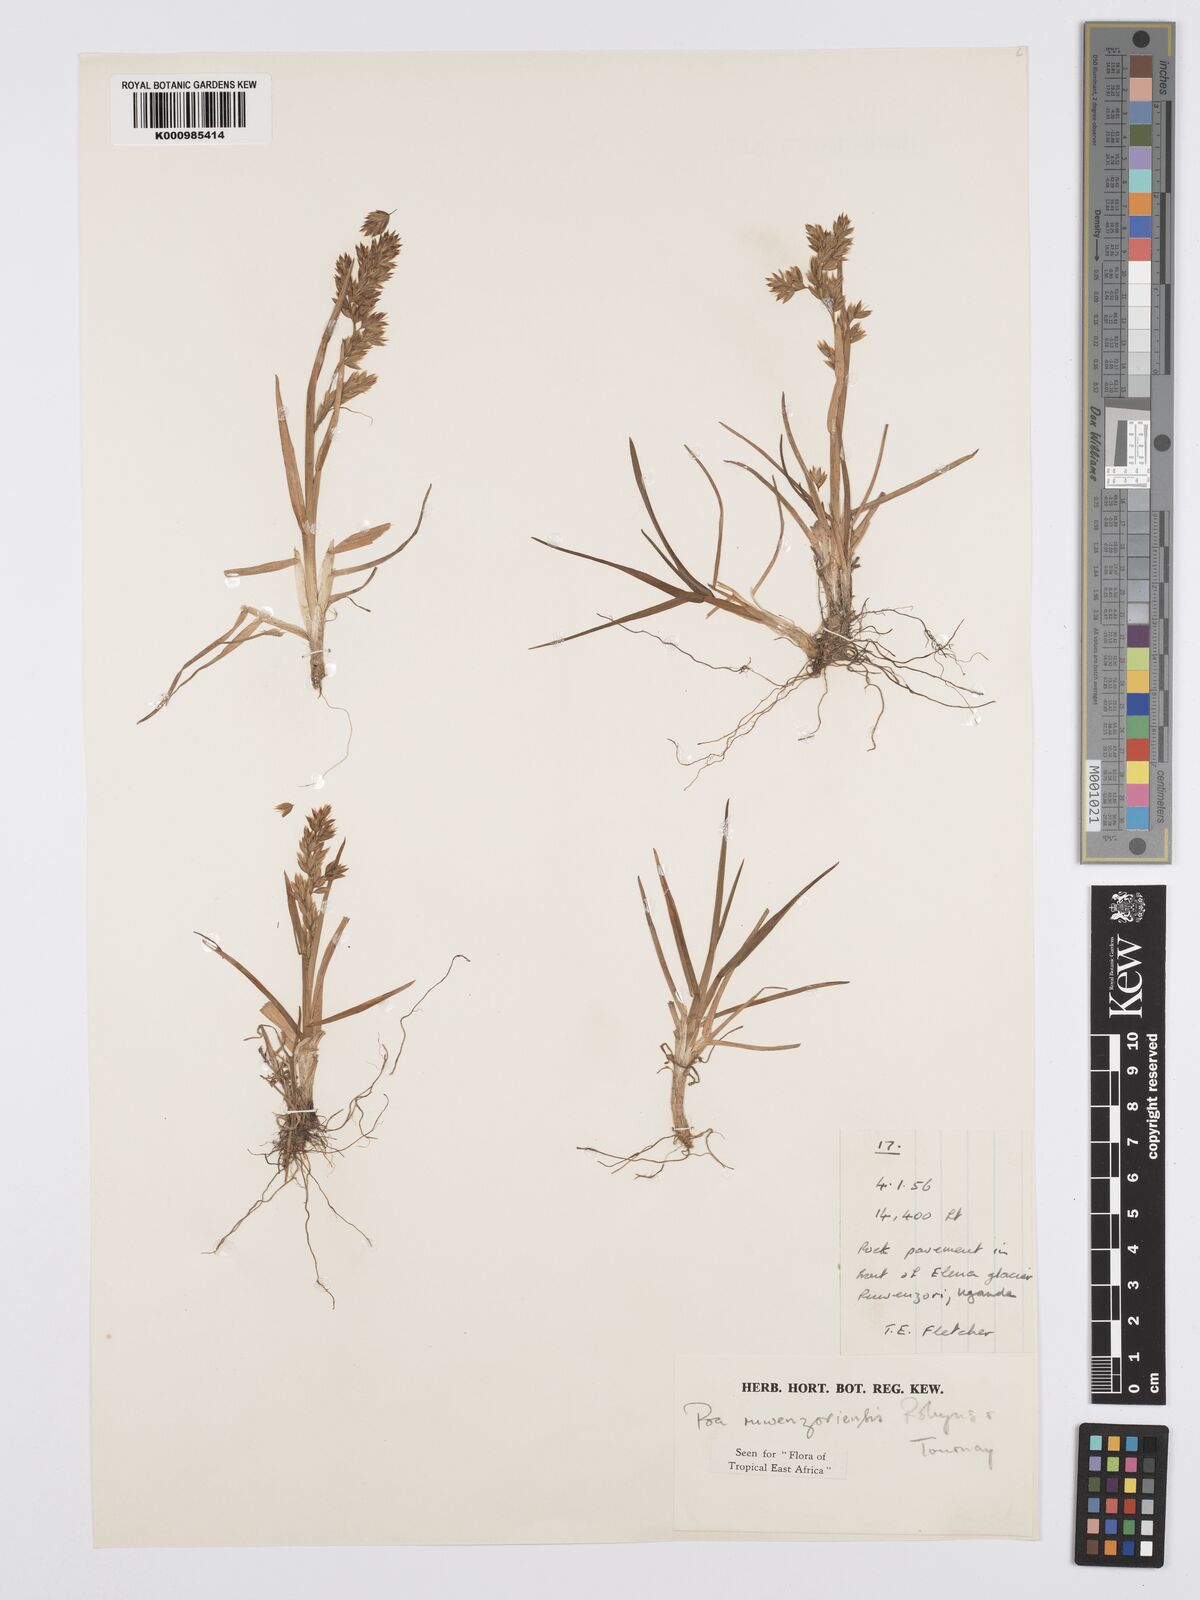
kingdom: Plantae
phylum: Tracheophyta
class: Liliopsida
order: Poales
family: Poaceae
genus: Poa
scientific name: Poa ruwenzoriensis
